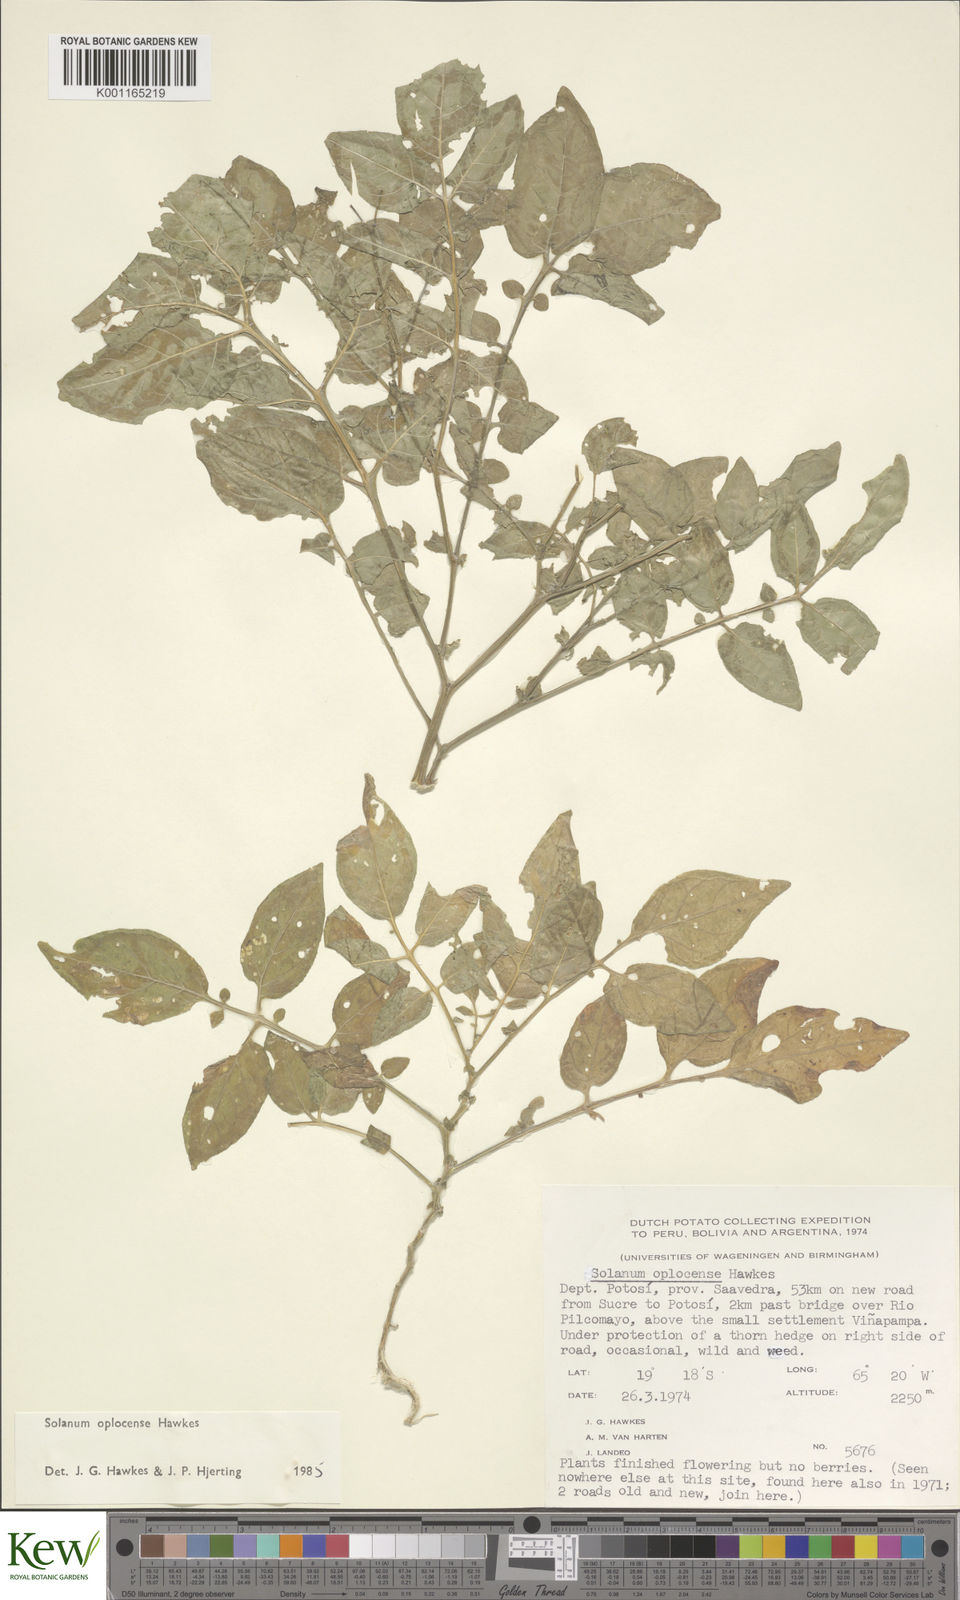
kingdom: Plantae
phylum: Tracheophyta
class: Magnoliopsida
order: Solanales
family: Solanaceae
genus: Solanum
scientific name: Solanum brevicaule
